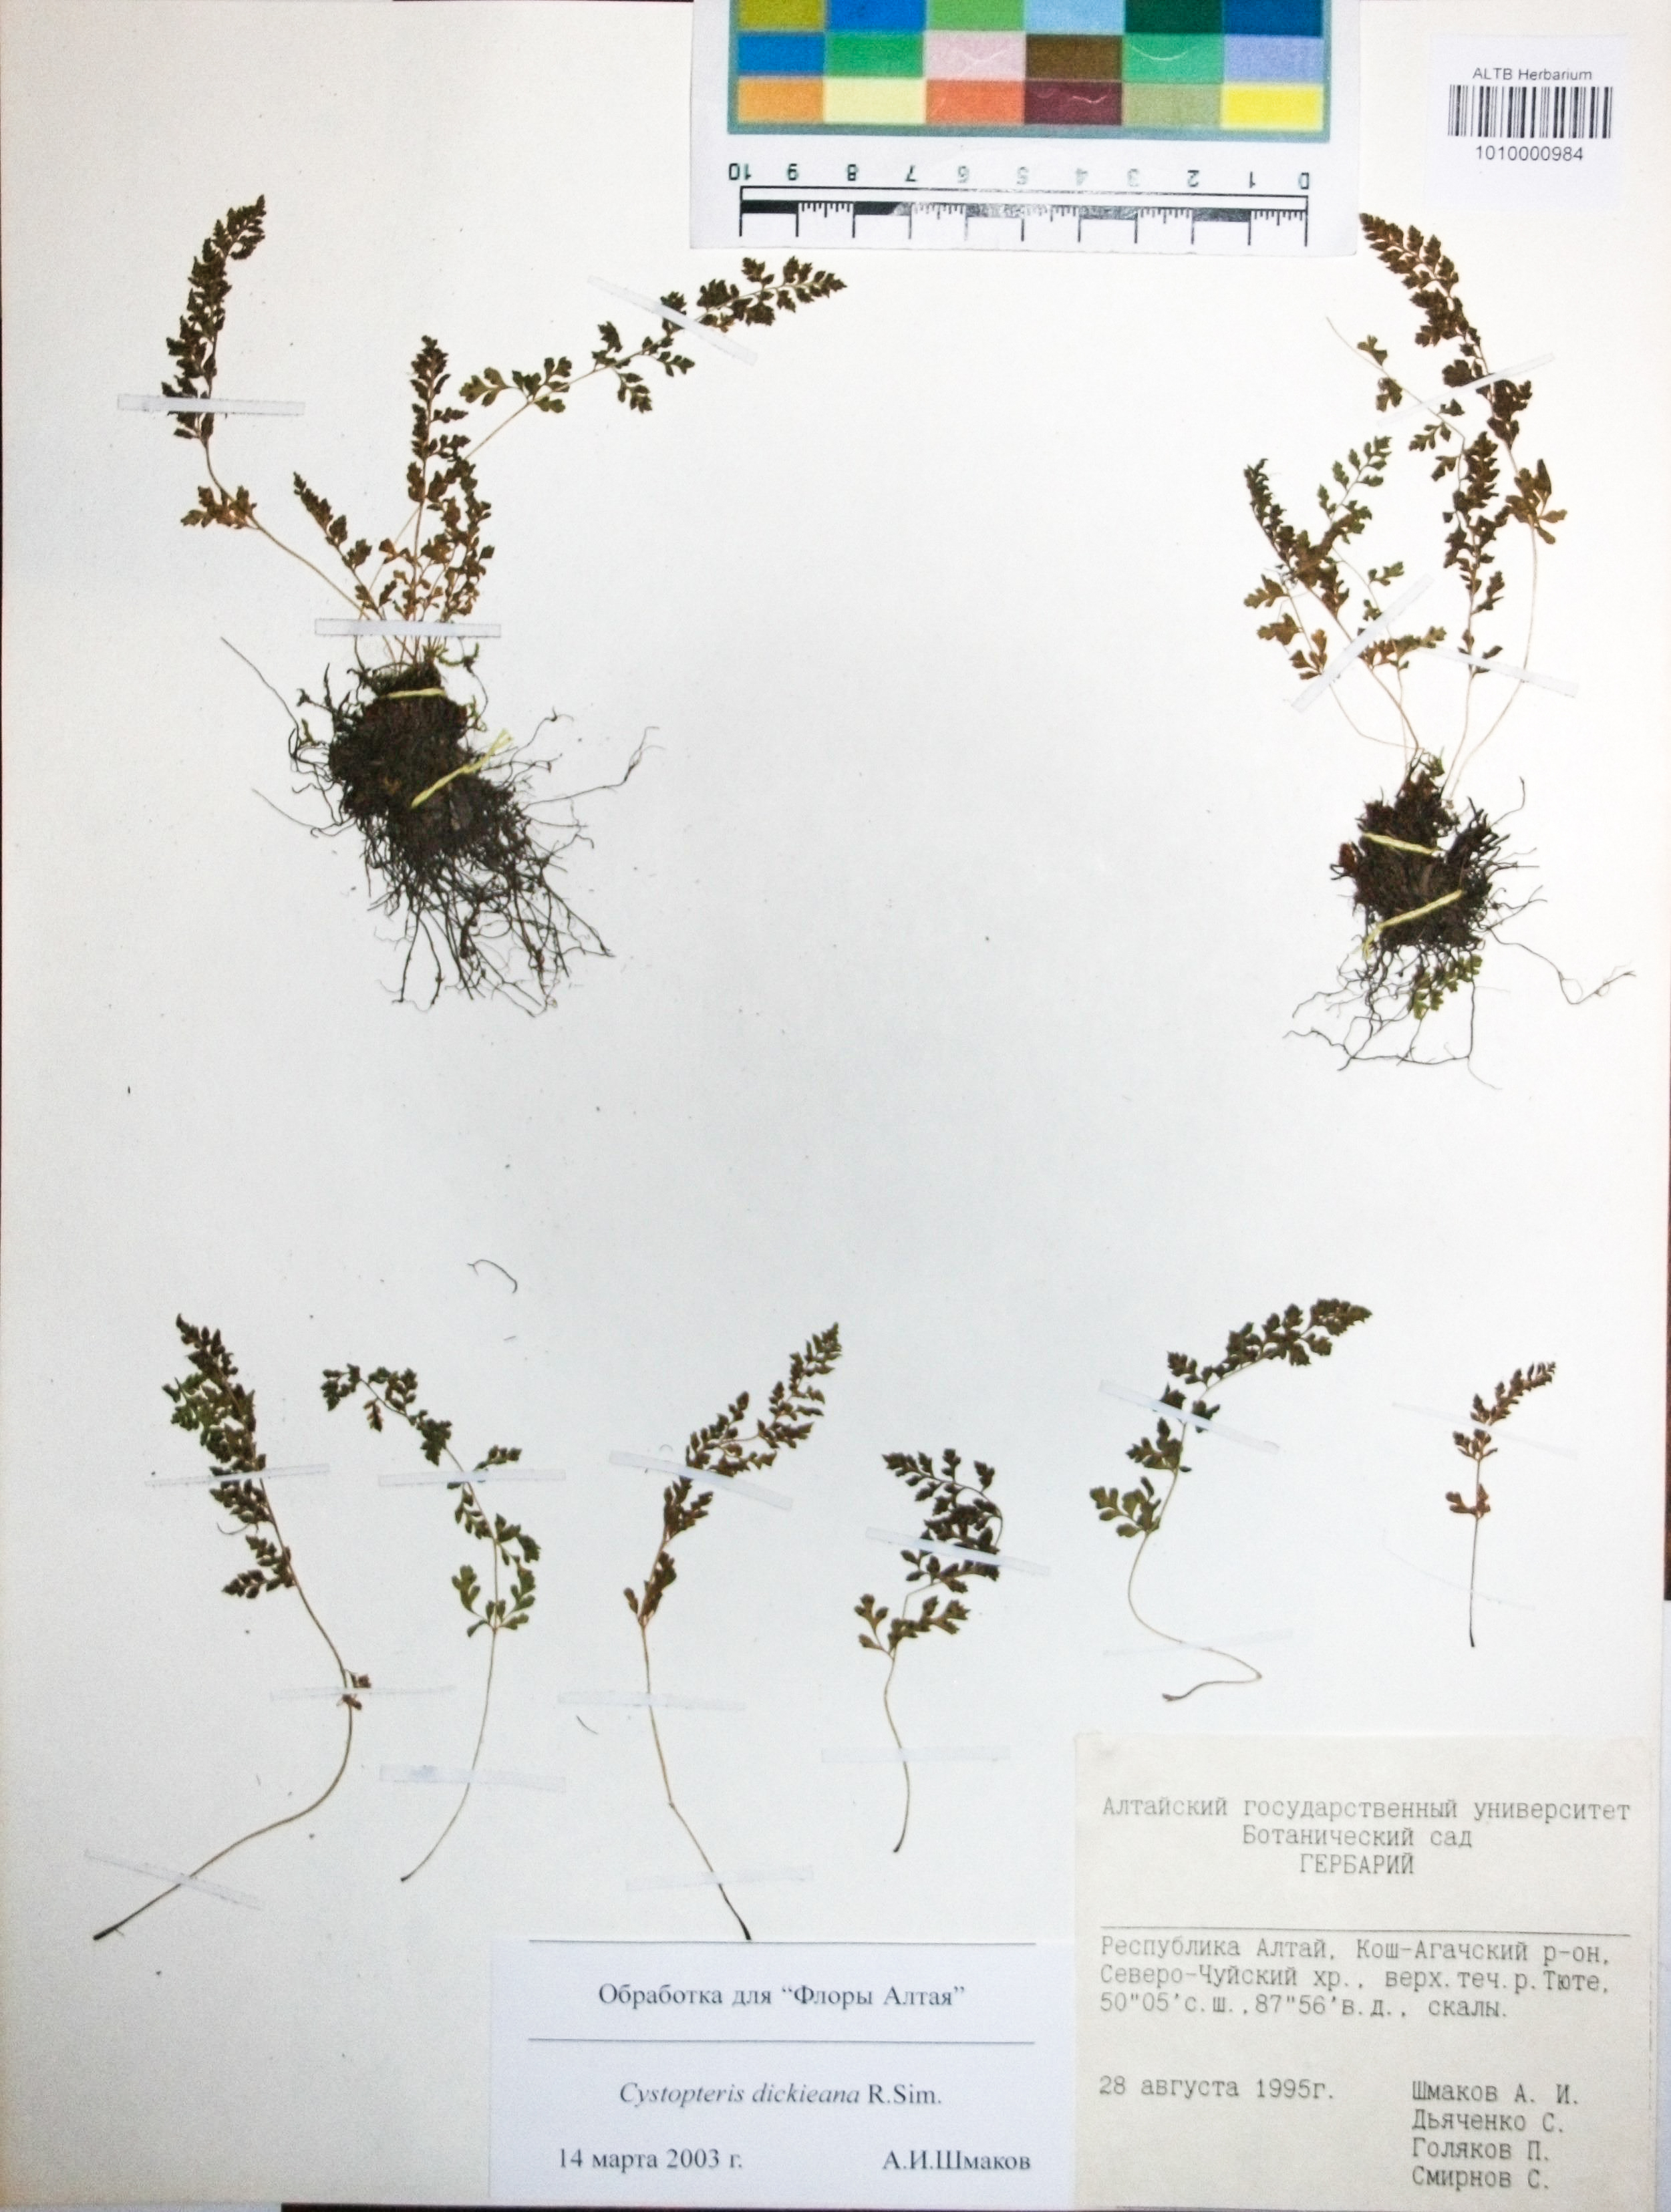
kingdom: Plantae
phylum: Tracheophyta
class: Polypodiopsida
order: Polypodiales
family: Cystopteridaceae
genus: Cystopteris
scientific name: Cystopteris dickieana
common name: Dickie's bladder-fern
